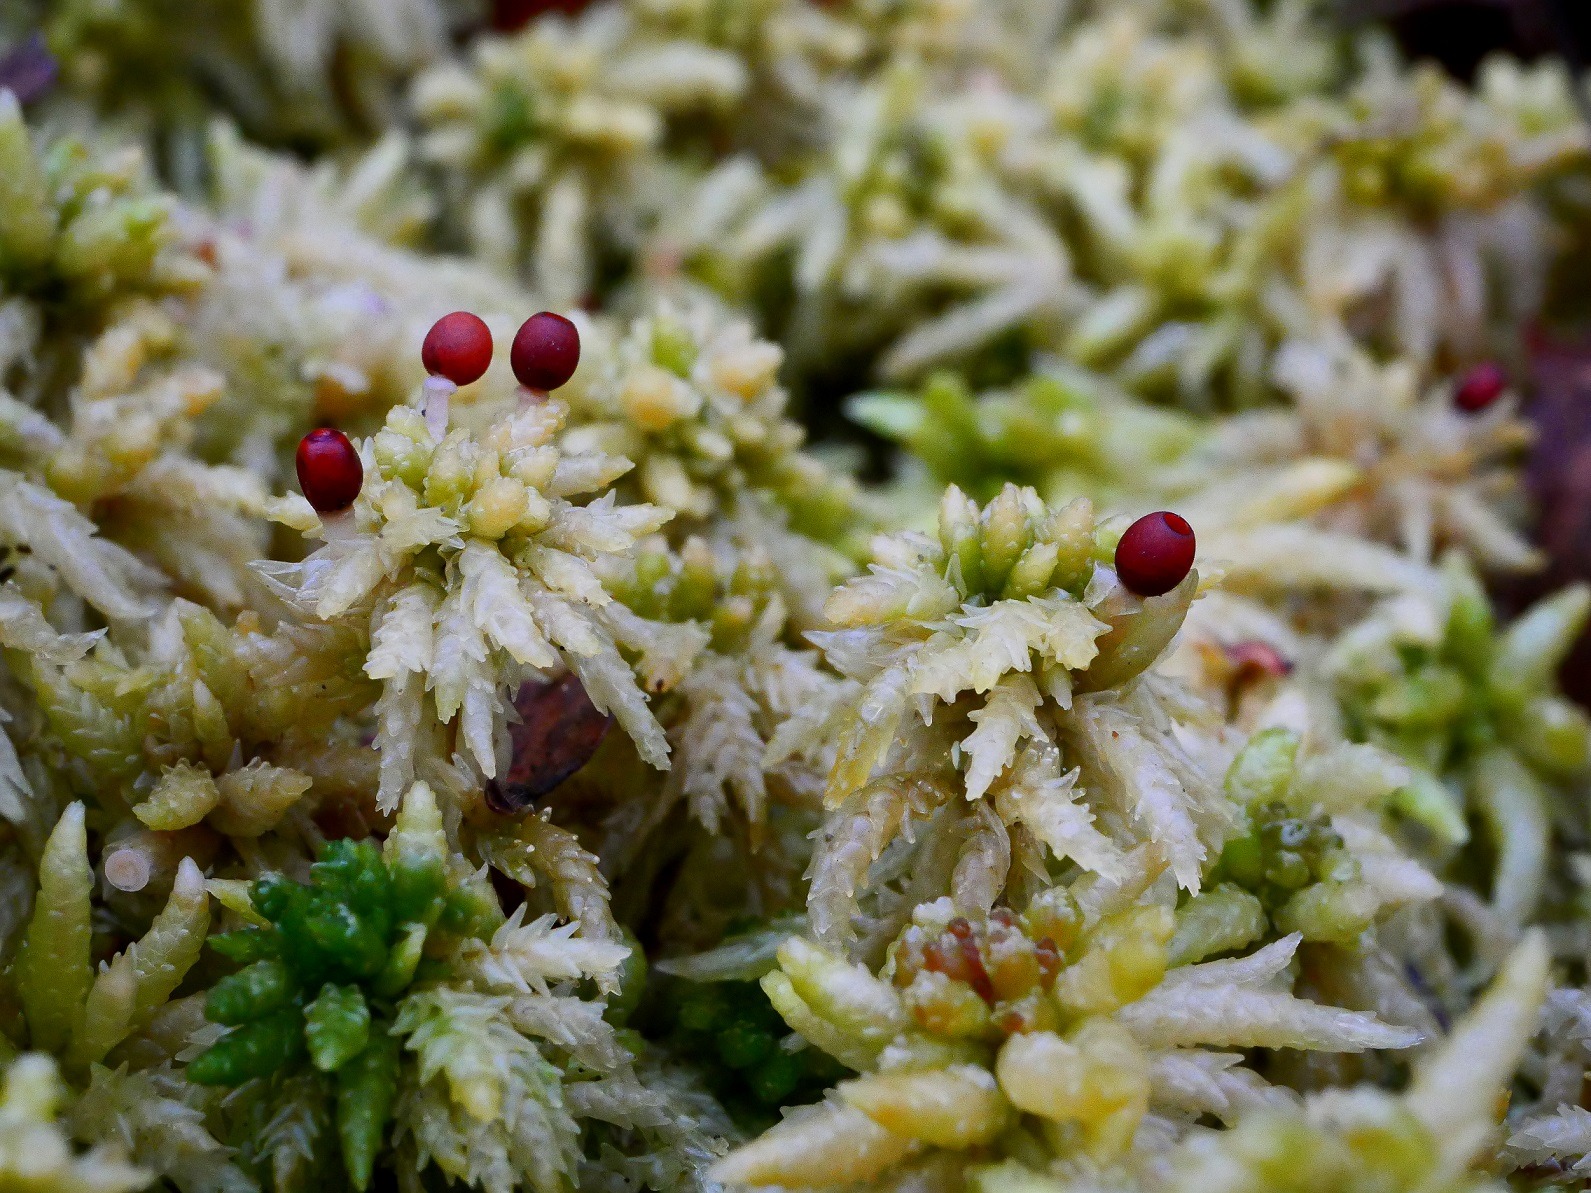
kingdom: Plantae
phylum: Bryophyta
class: Sphagnopsida
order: Sphagnales
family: Sphagnaceae
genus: Sphagnum
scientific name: Sphagnum palustre
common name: Almindelig tørvemos
